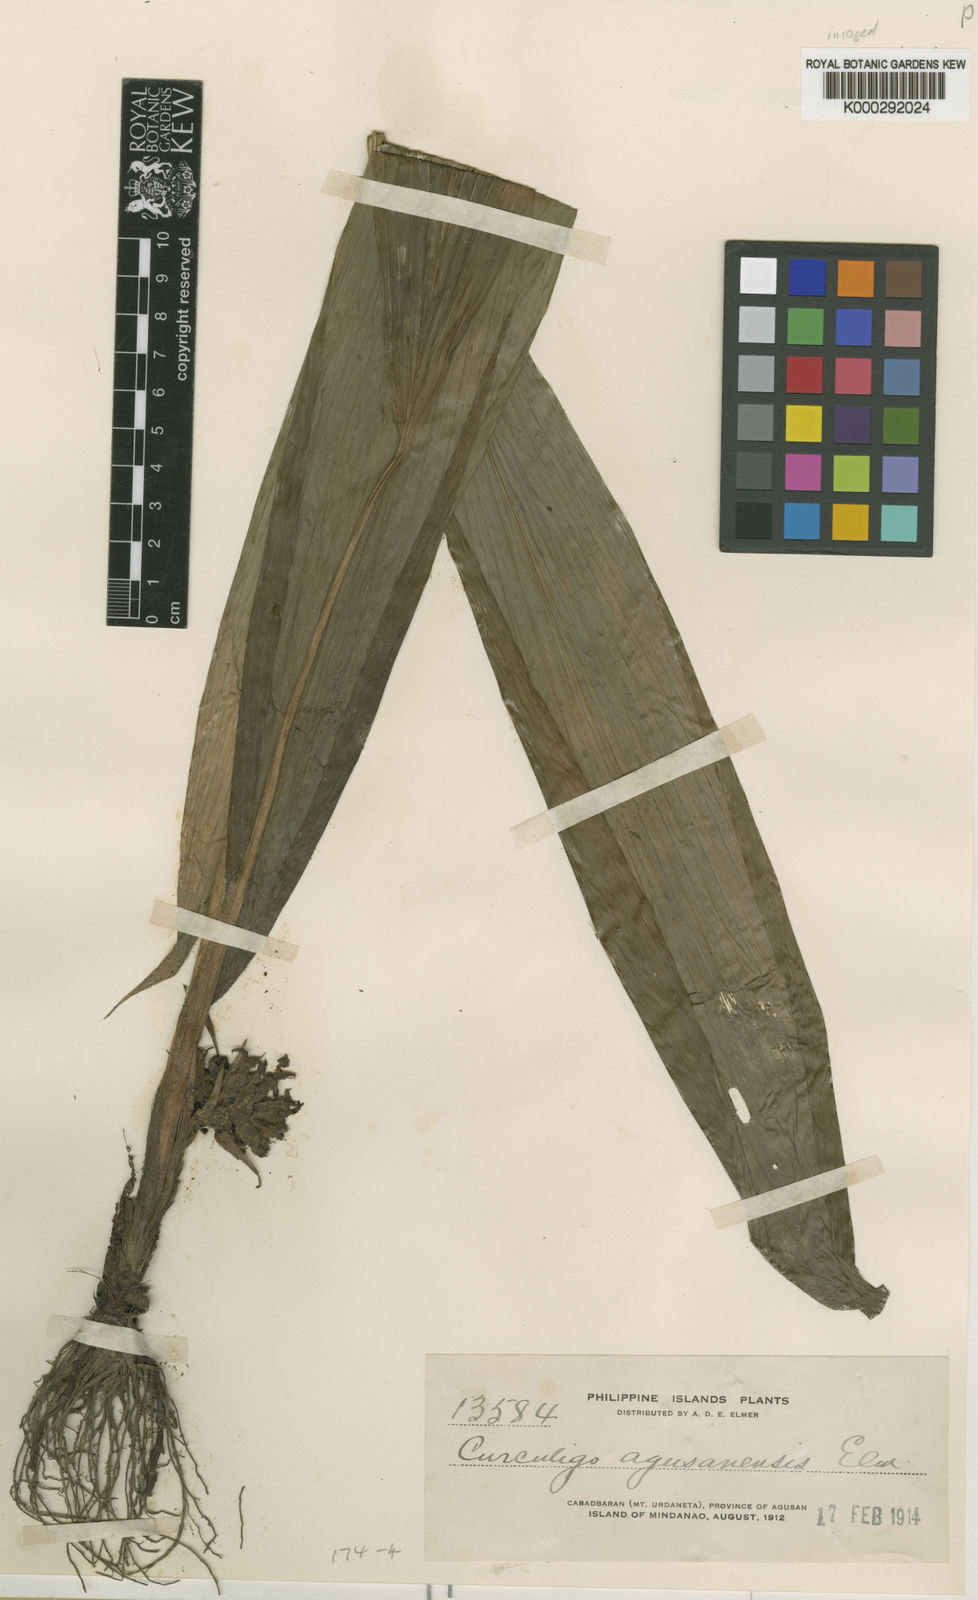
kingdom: Plantae
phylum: Tracheophyta
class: Liliopsida
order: Asparagales
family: Hypoxidaceae
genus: Curculigo
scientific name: Curculigo latifolia
